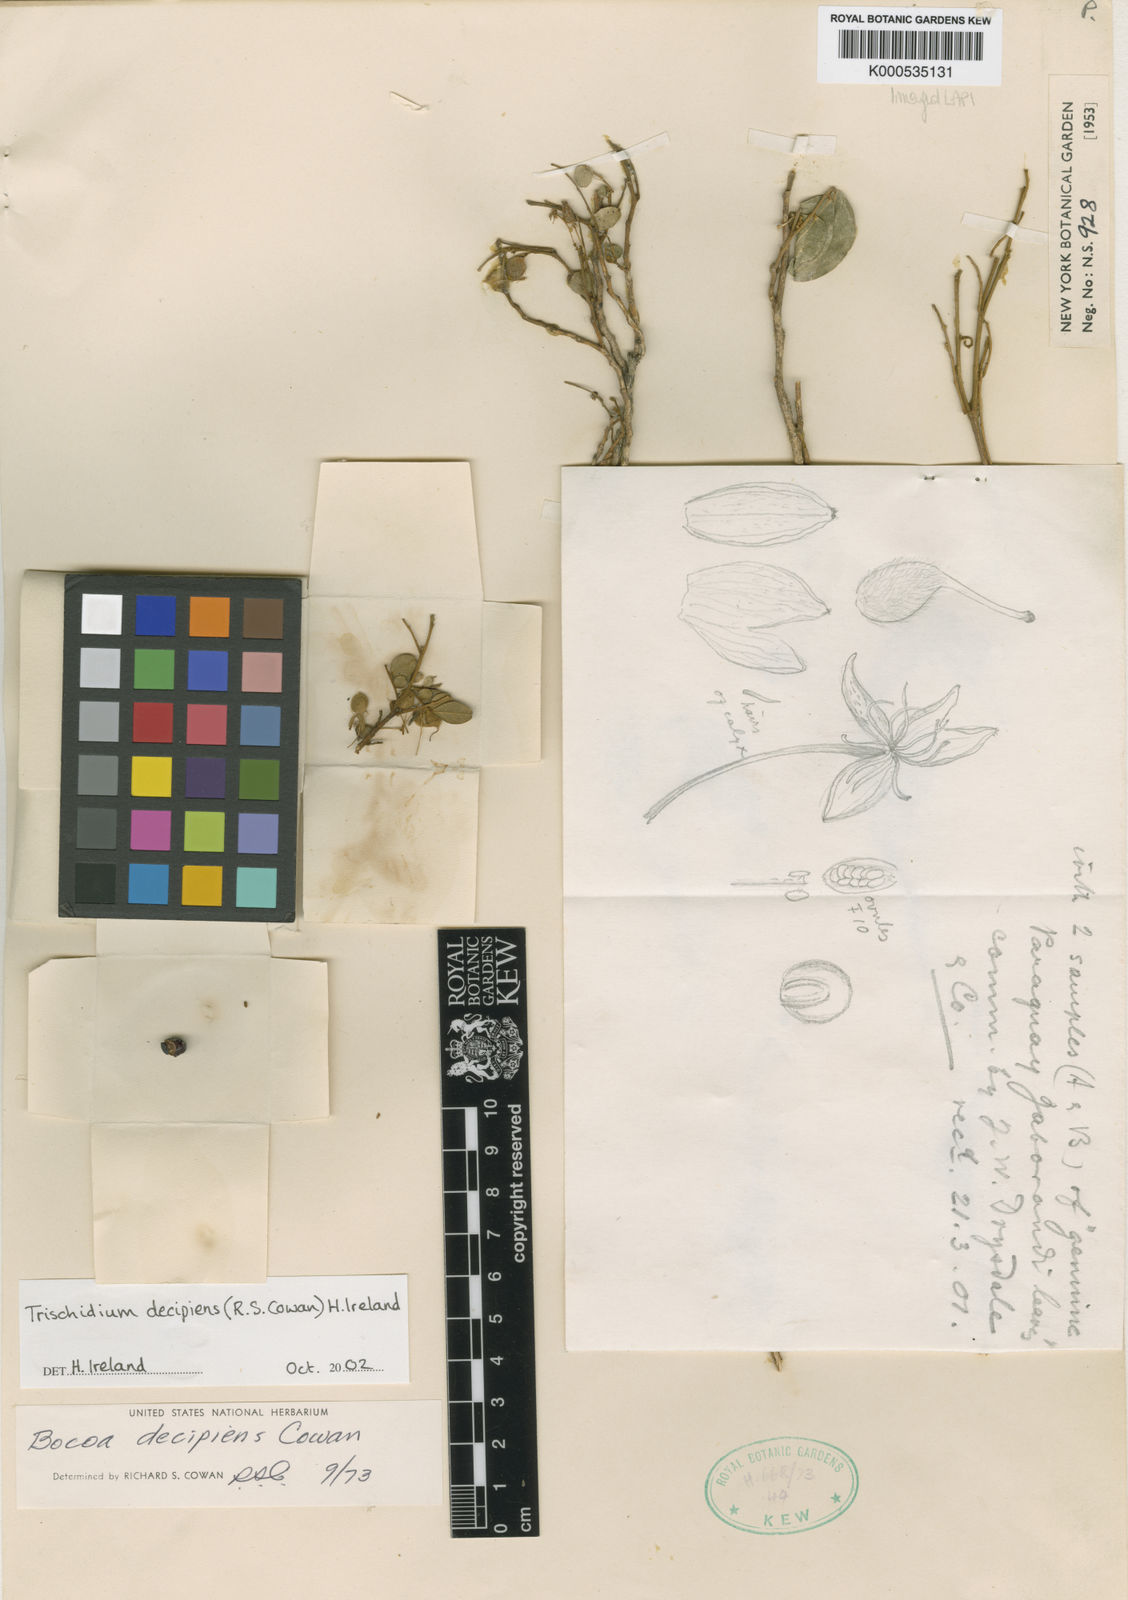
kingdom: Plantae
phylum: Tracheophyta
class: Magnoliopsida
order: Fabales
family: Fabaceae
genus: Trischidium
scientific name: Trischidium decipiens
